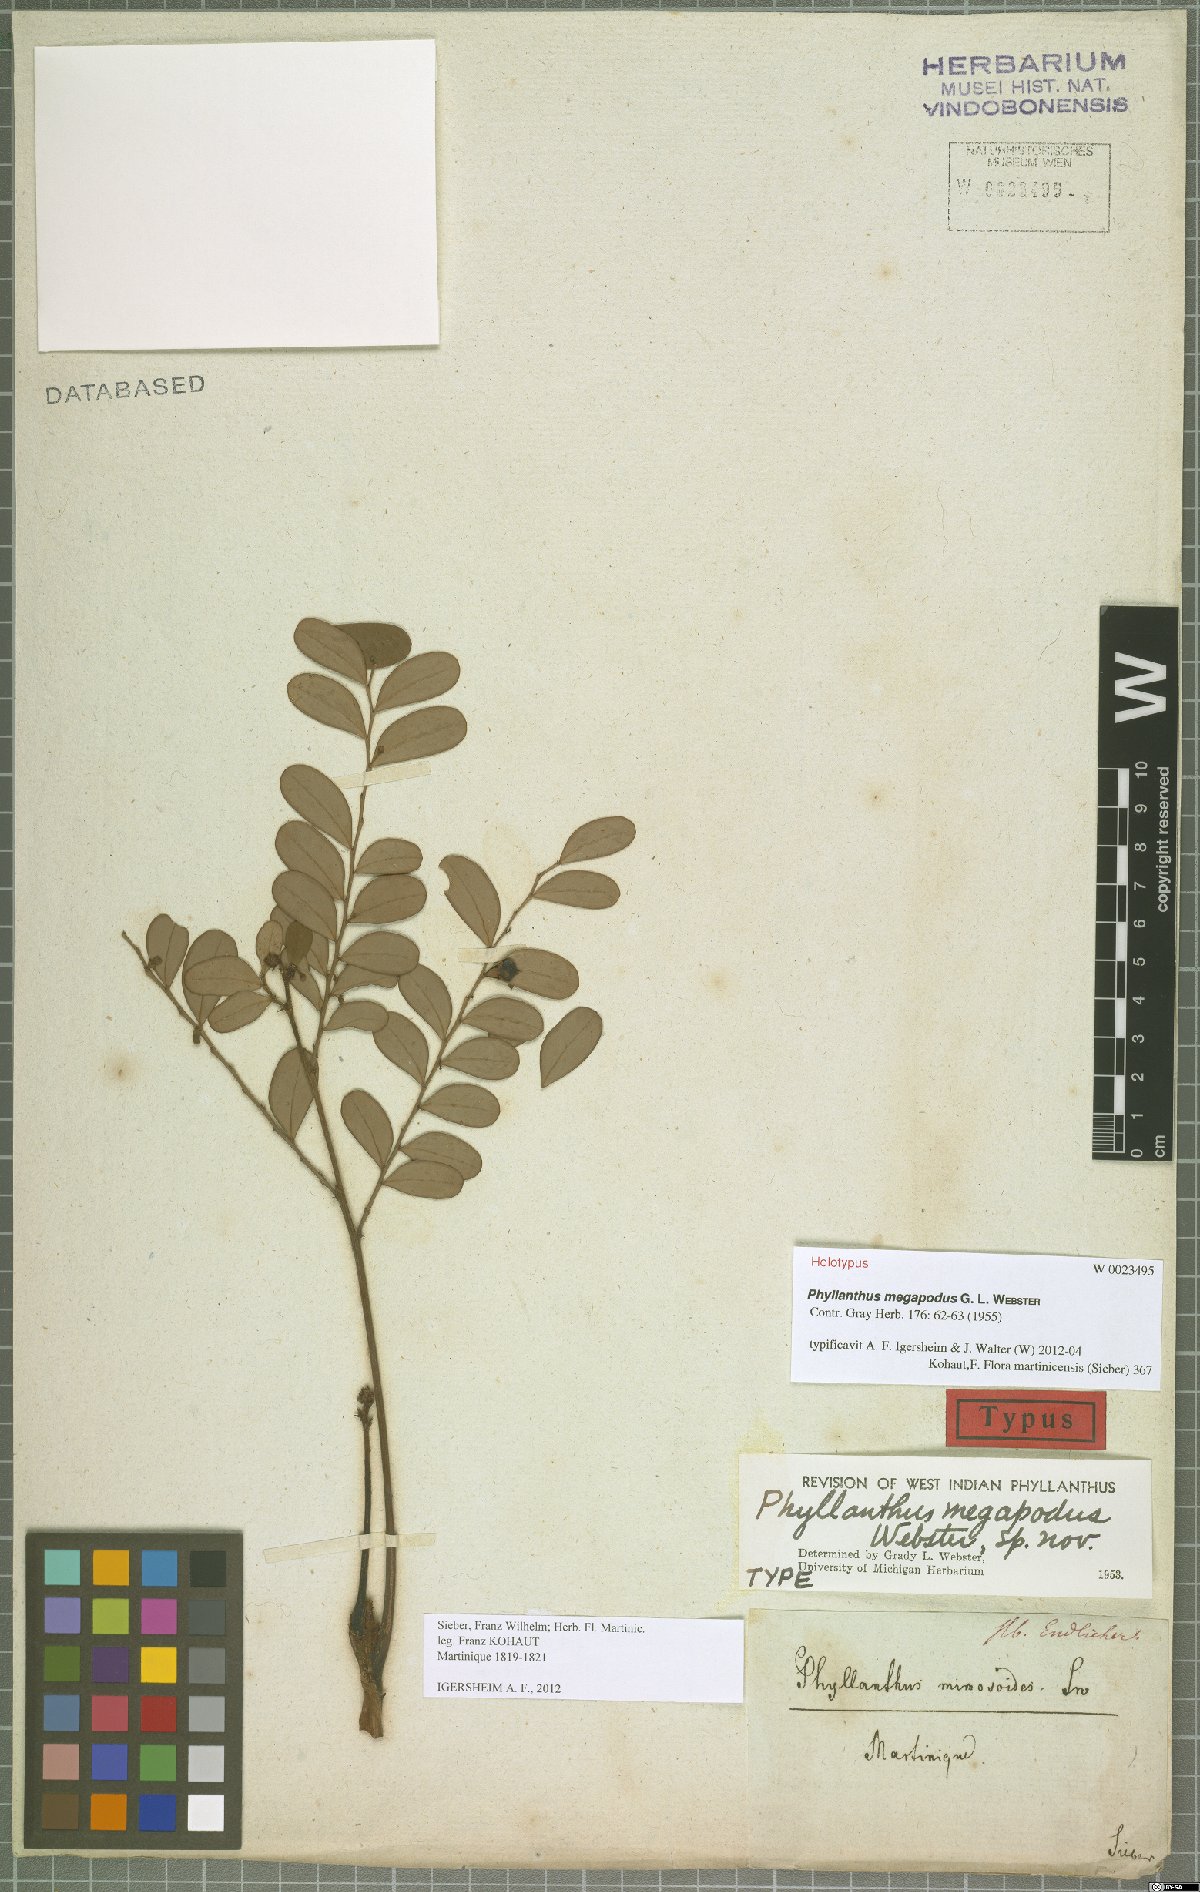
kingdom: Plantae
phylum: Tracheophyta
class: Magnoliopsida
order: Malpighiales
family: Phyllanthaceae
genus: Phyllanthus
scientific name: Phyllanthus megapodus
